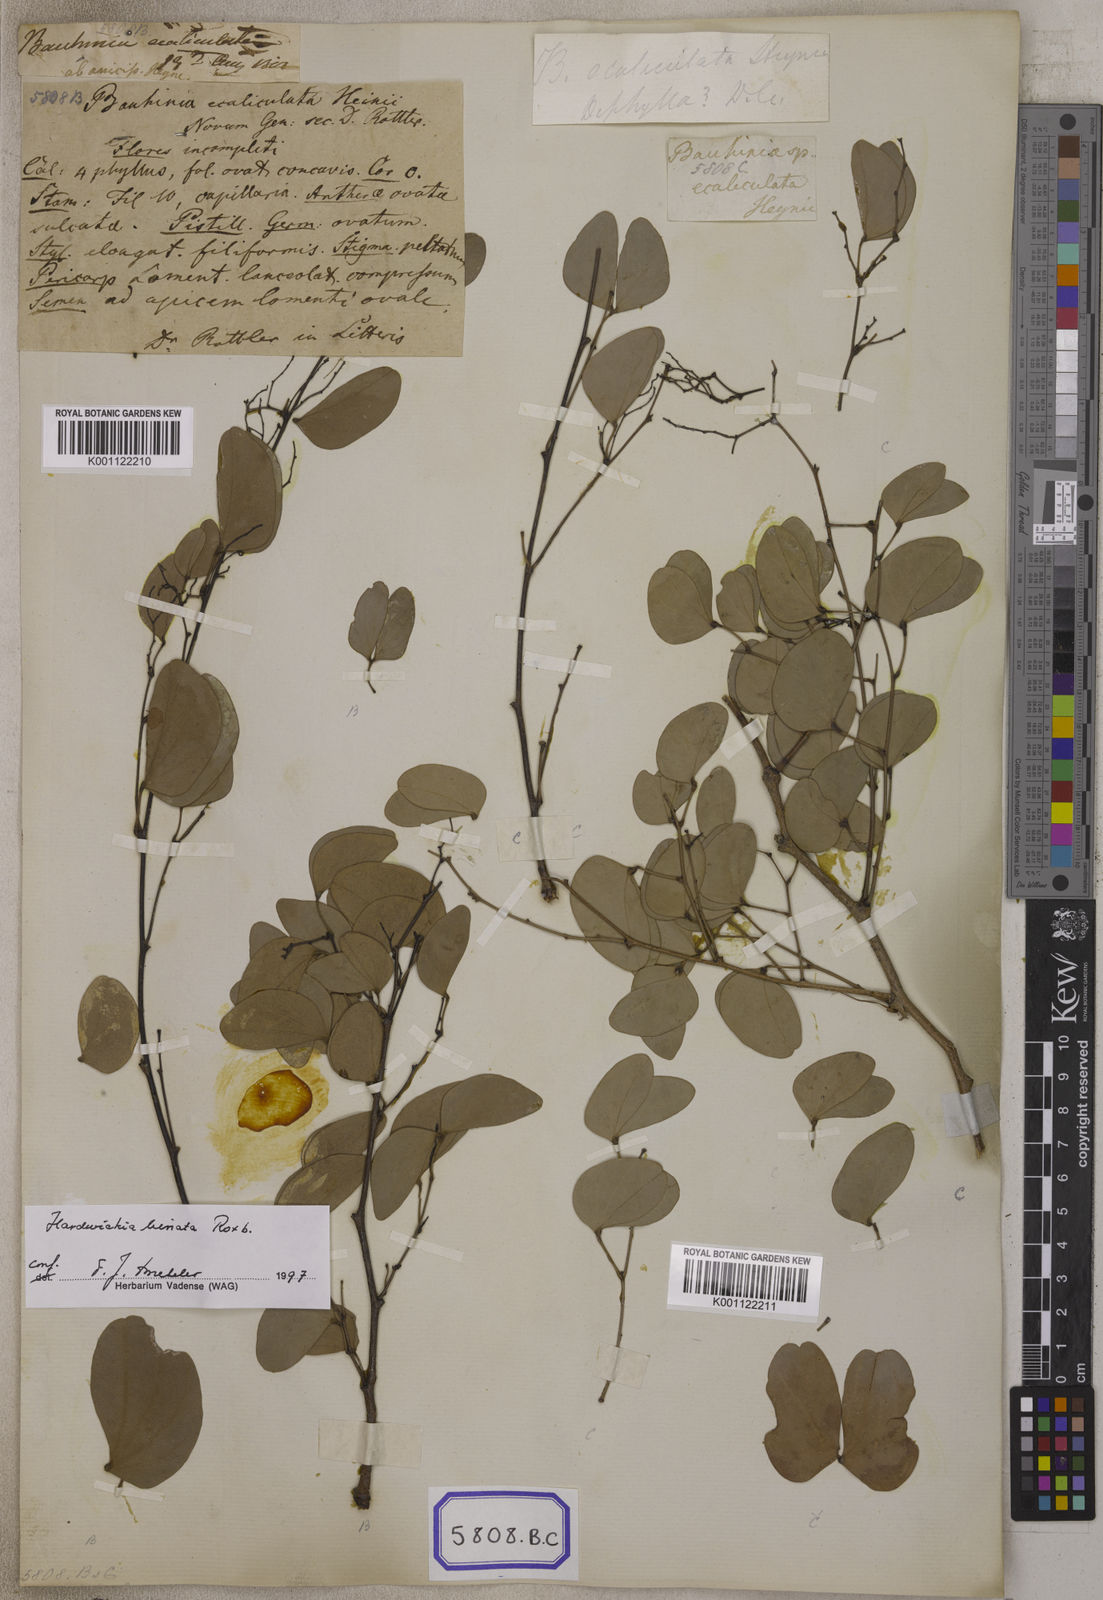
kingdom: Plantae
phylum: Tracheophyta
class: Magnoliopsida
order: Fabales
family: Fabaceae
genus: Hardwickia
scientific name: Hardwickia binata
